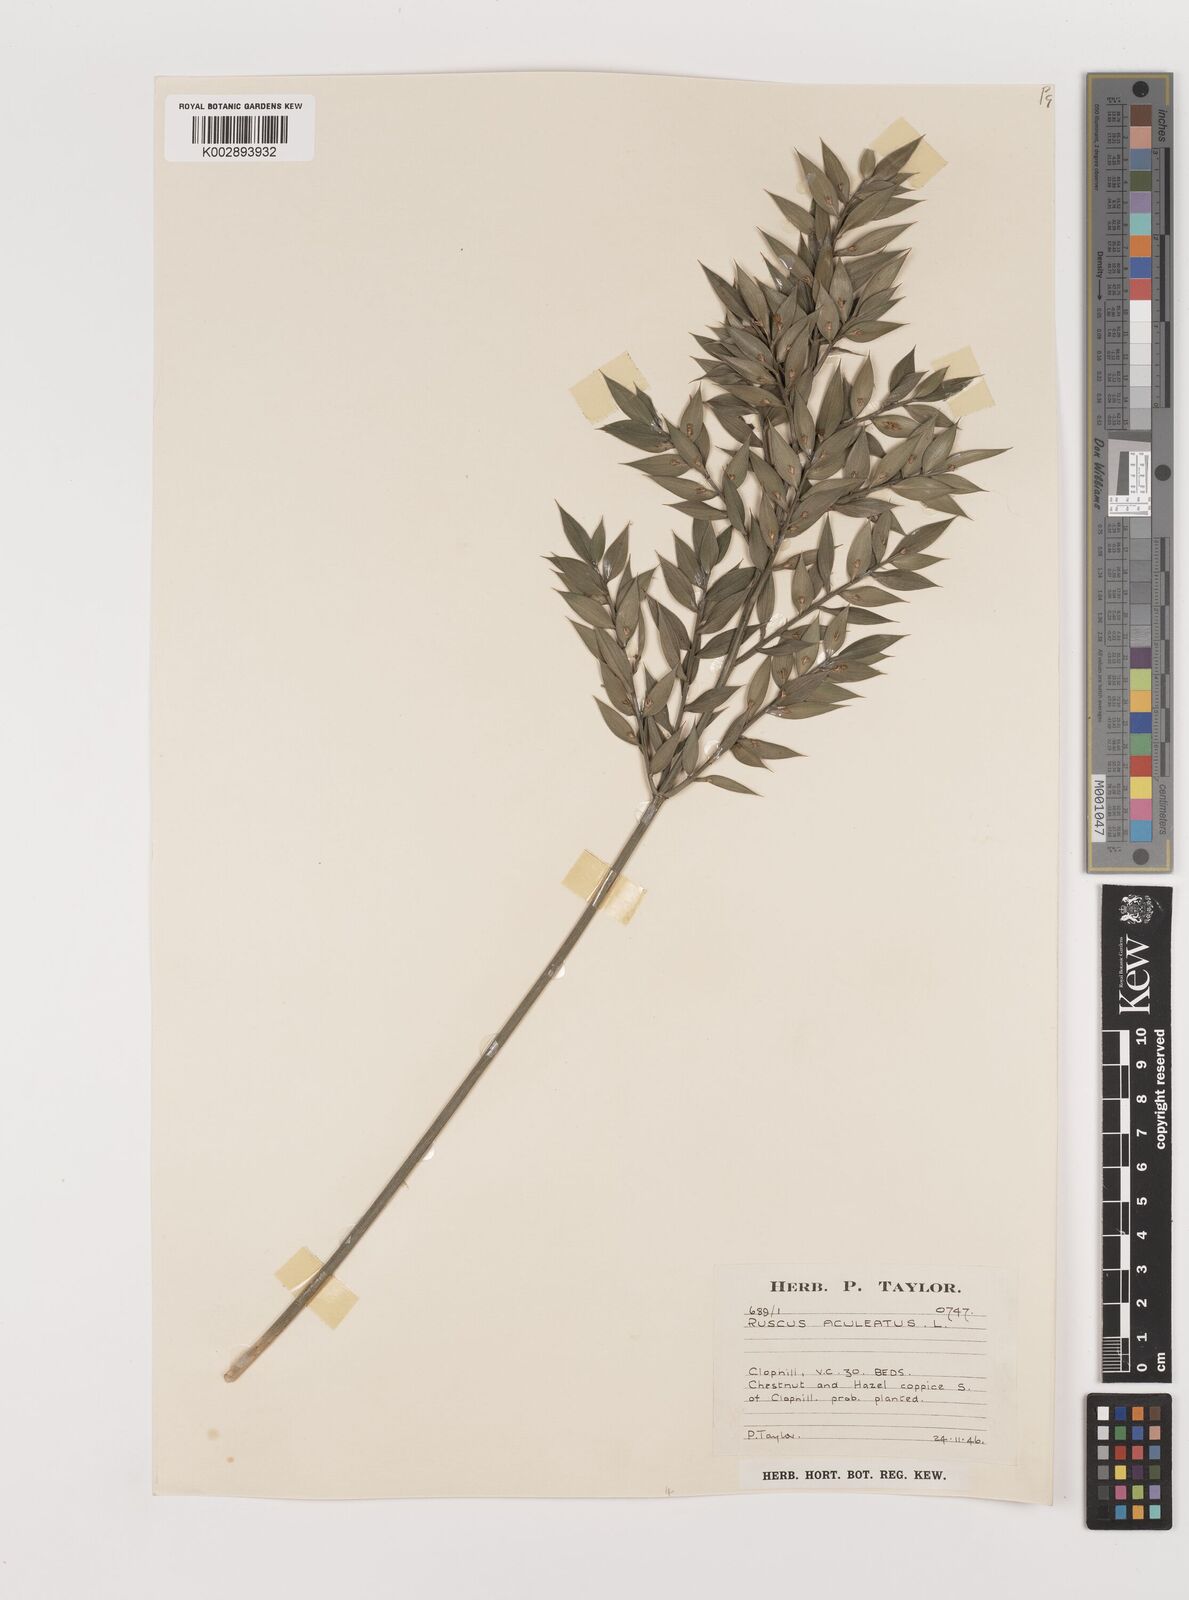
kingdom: Plantae
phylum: Tracheophyta
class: Liliopsida
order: Asparagales
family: Asparagaceae
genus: Ruscus
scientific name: Ruscus aculeatus
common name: Butcher's-broom
